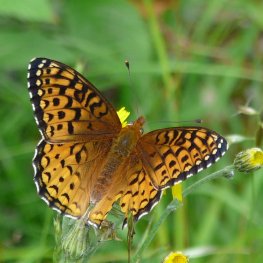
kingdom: Animalia
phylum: Arthropoda
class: Insecta
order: Lepidoptera
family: Nymphalidae
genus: Speyeria
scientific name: Speyeria atlantis
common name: Atlantis Fritillary
